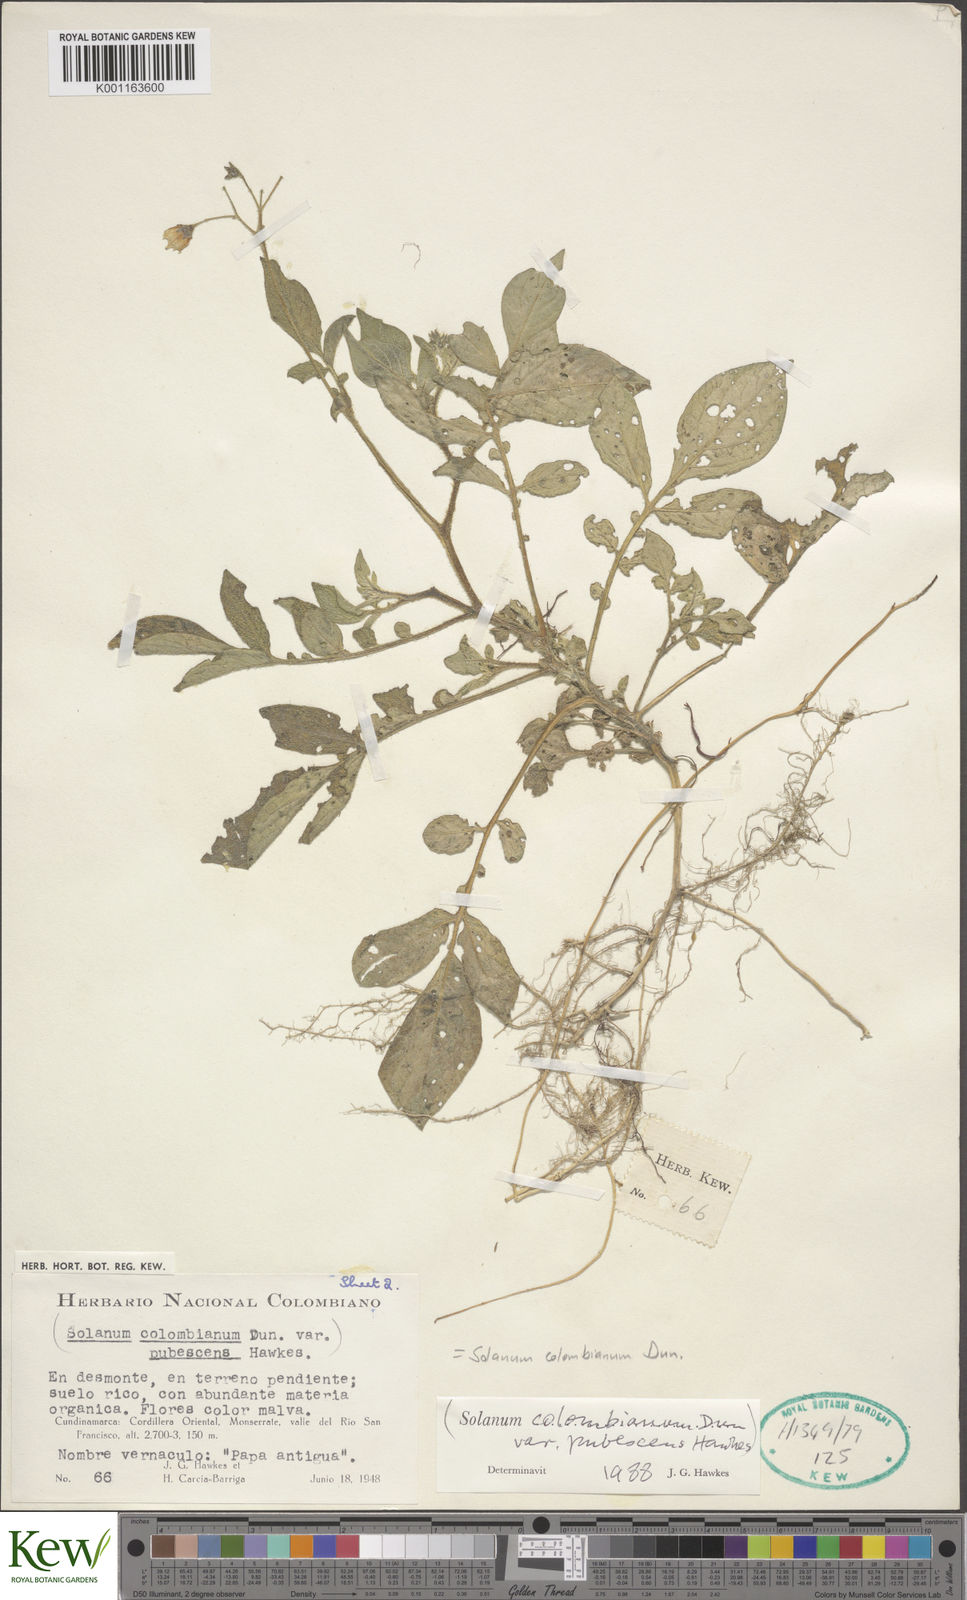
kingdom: Plantae
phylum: Tracheophyta
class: Magnoliopsida
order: Solanales
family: Solanaceae
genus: Solanum
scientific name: Solanum colombianum
